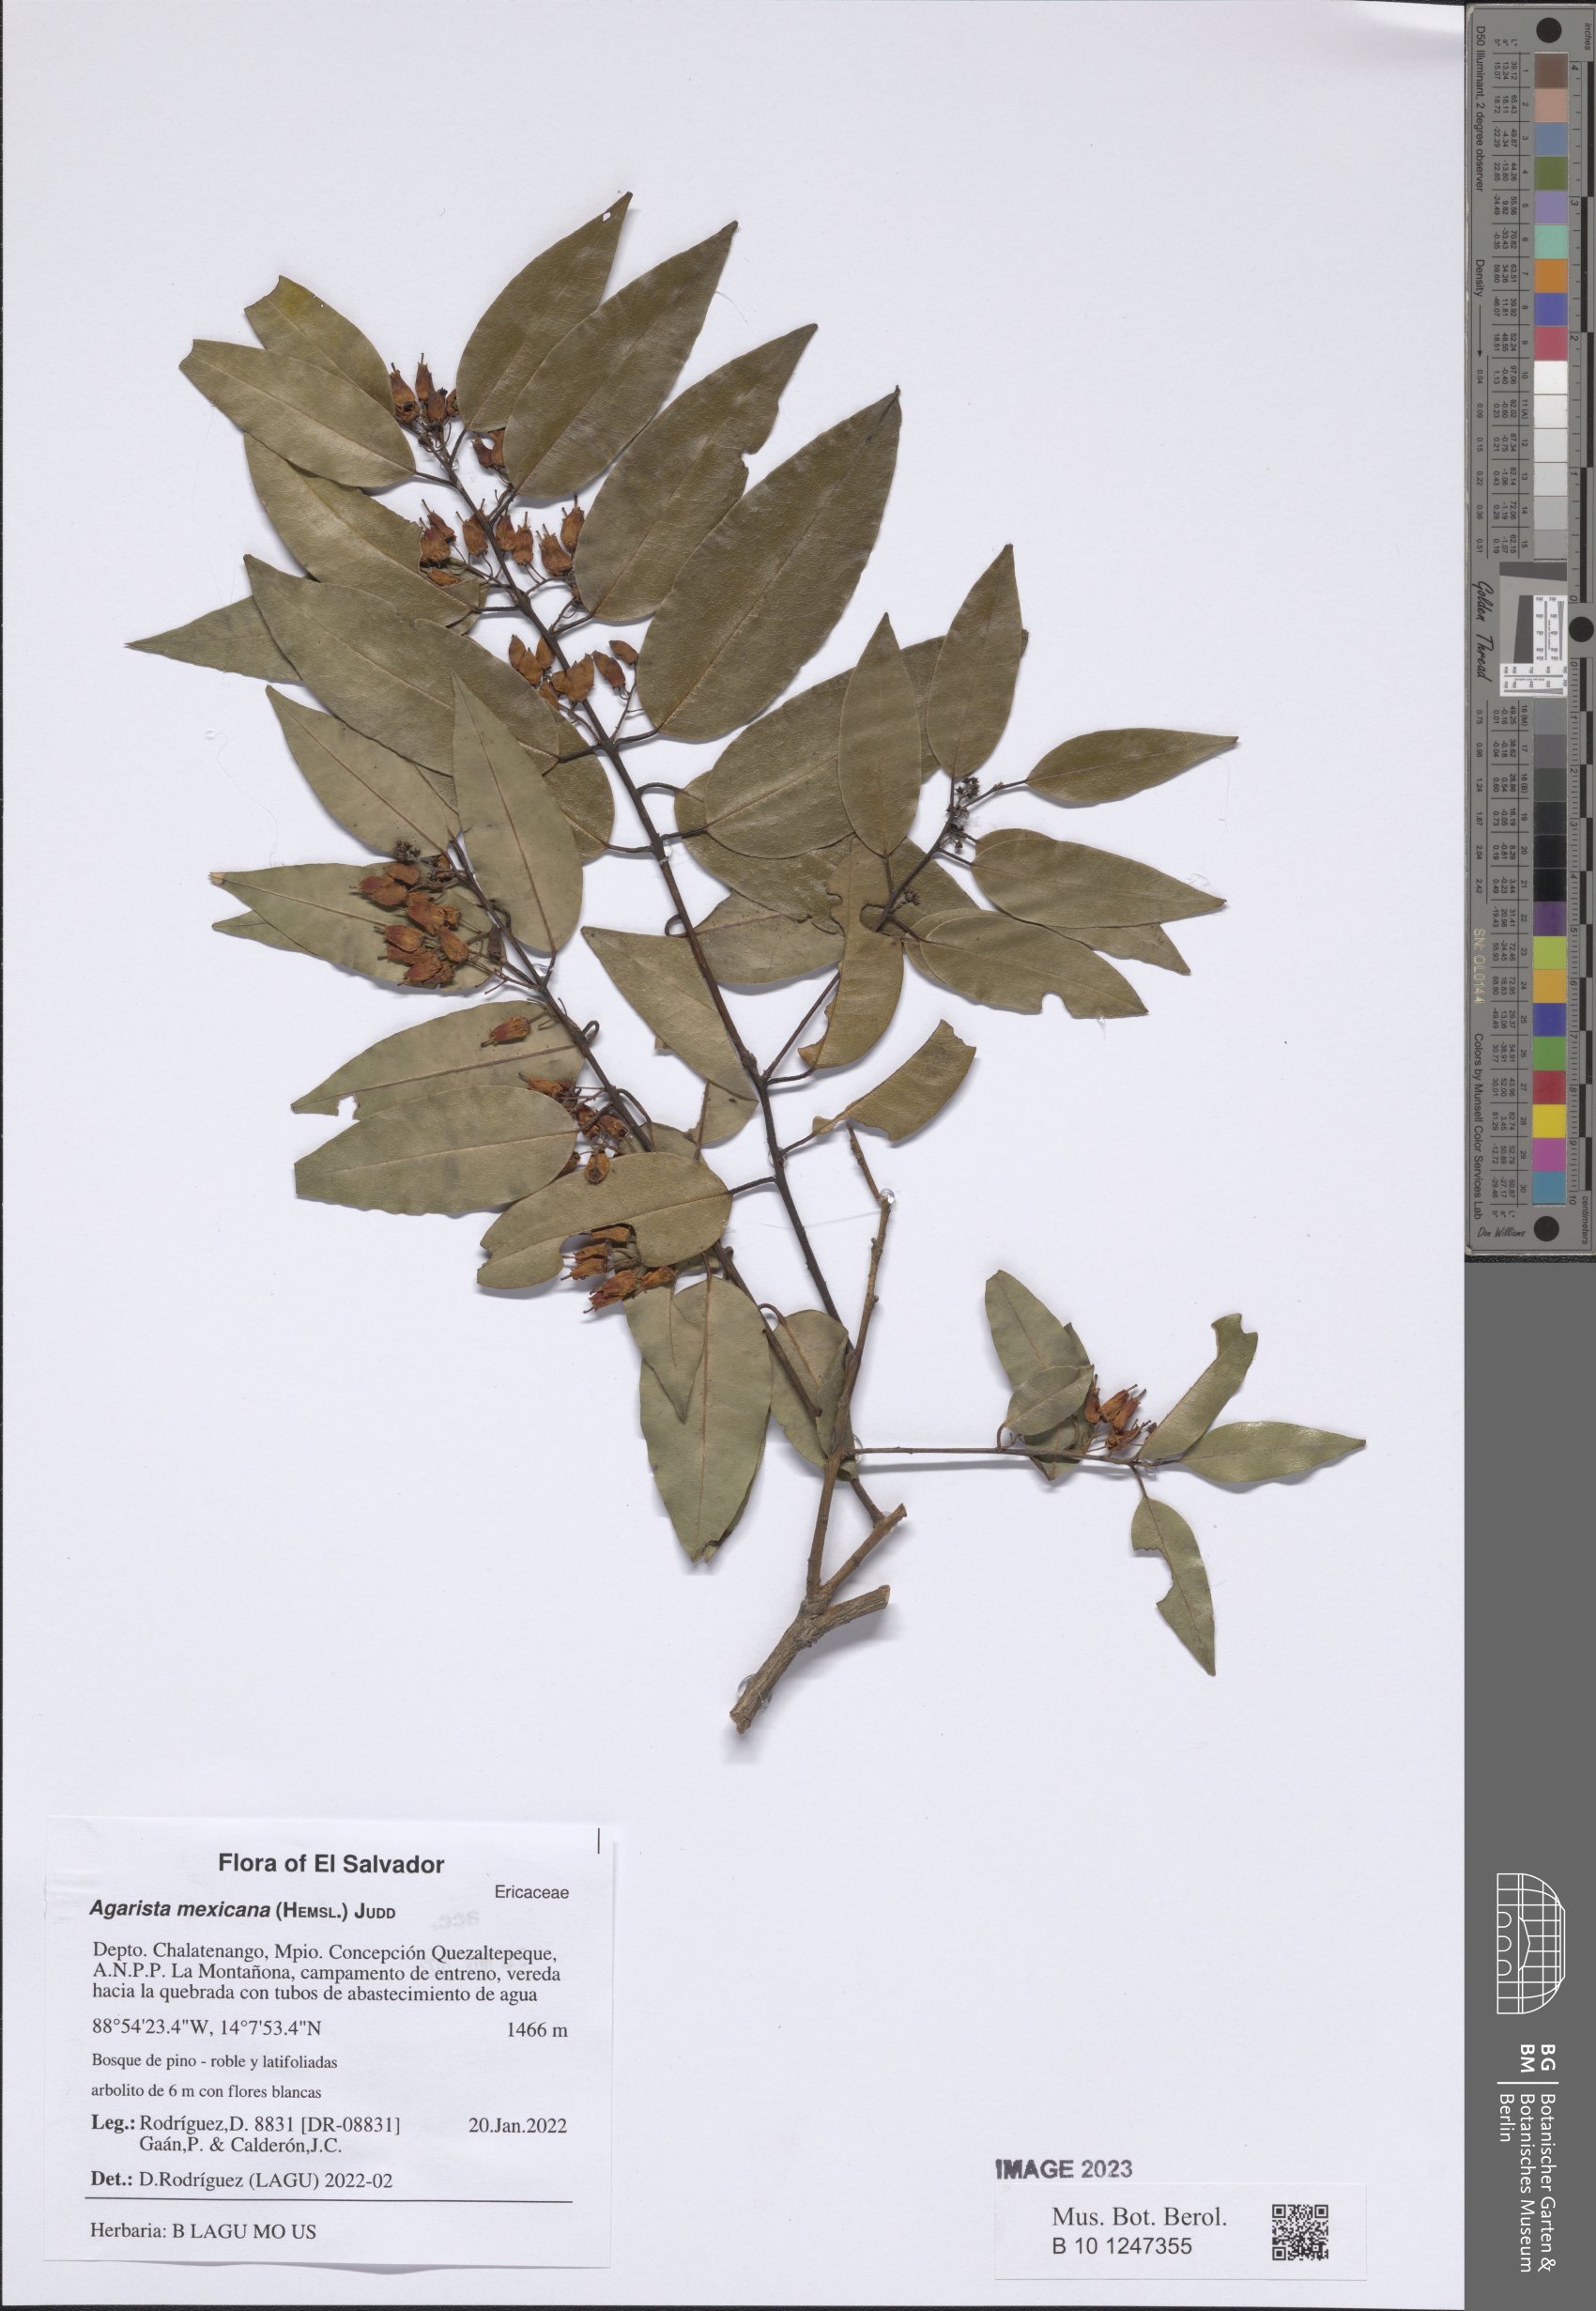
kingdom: Plantae
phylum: Tracheophyta
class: Magnoliopsida
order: Ericales
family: Ericaceae
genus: Agarista
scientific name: Agarista mexicana
